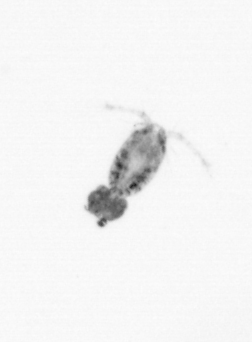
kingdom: Animalia
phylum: Arthropoda
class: Copepoda
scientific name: Copepoda
